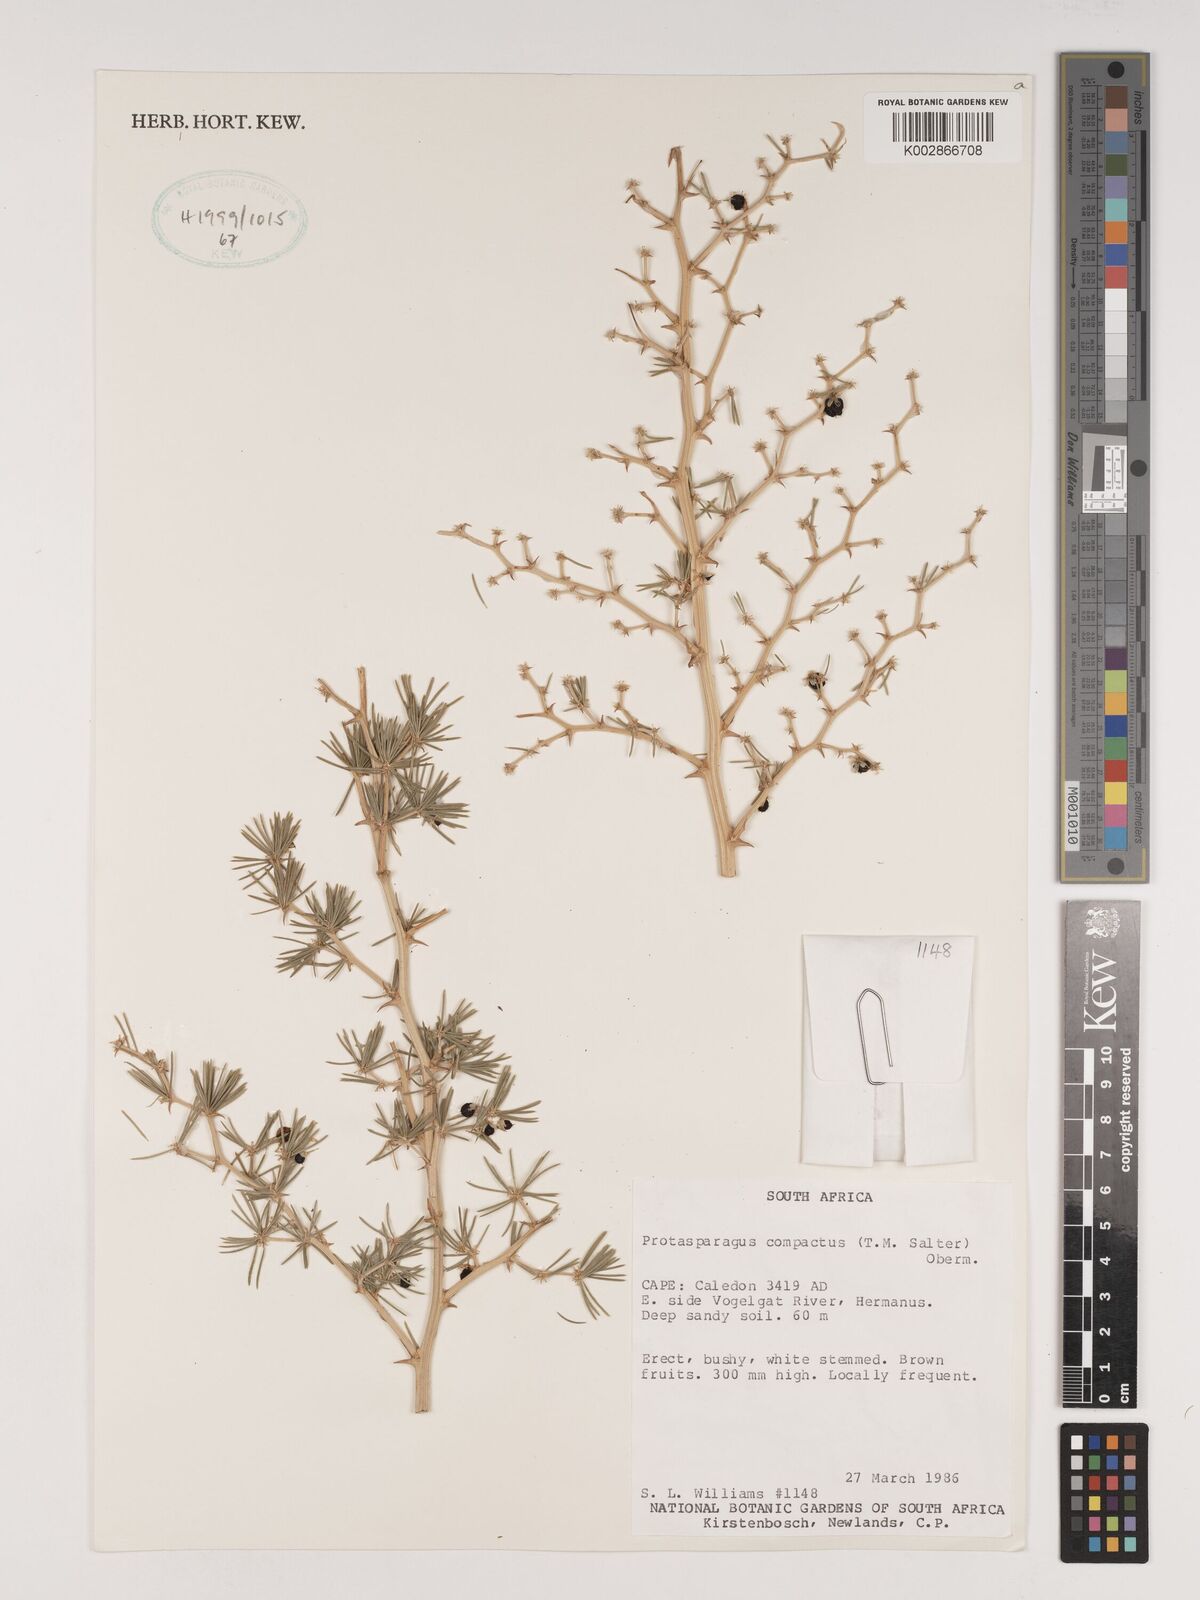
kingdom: Plantae
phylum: Tracheophyta
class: Liliopsida
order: Asparagales
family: Asparagaceae
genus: Asparagus
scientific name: Asparagus lignosus
